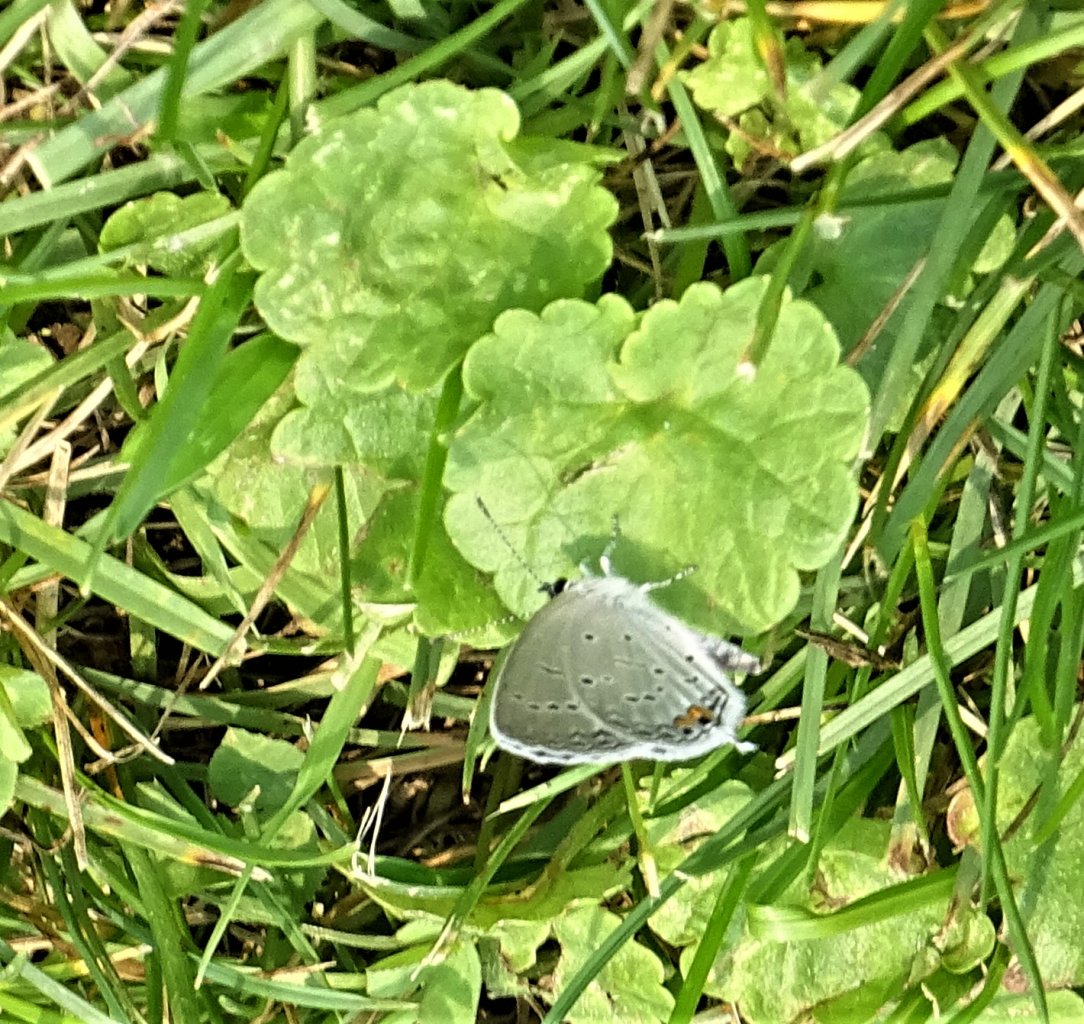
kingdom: Animalia
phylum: Arthropoda
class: Insecta
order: Lepidoptera
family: Lycaenidae
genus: Elkalyce
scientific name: Elkalyce comyntas
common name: Eastern Tailed-Blue
